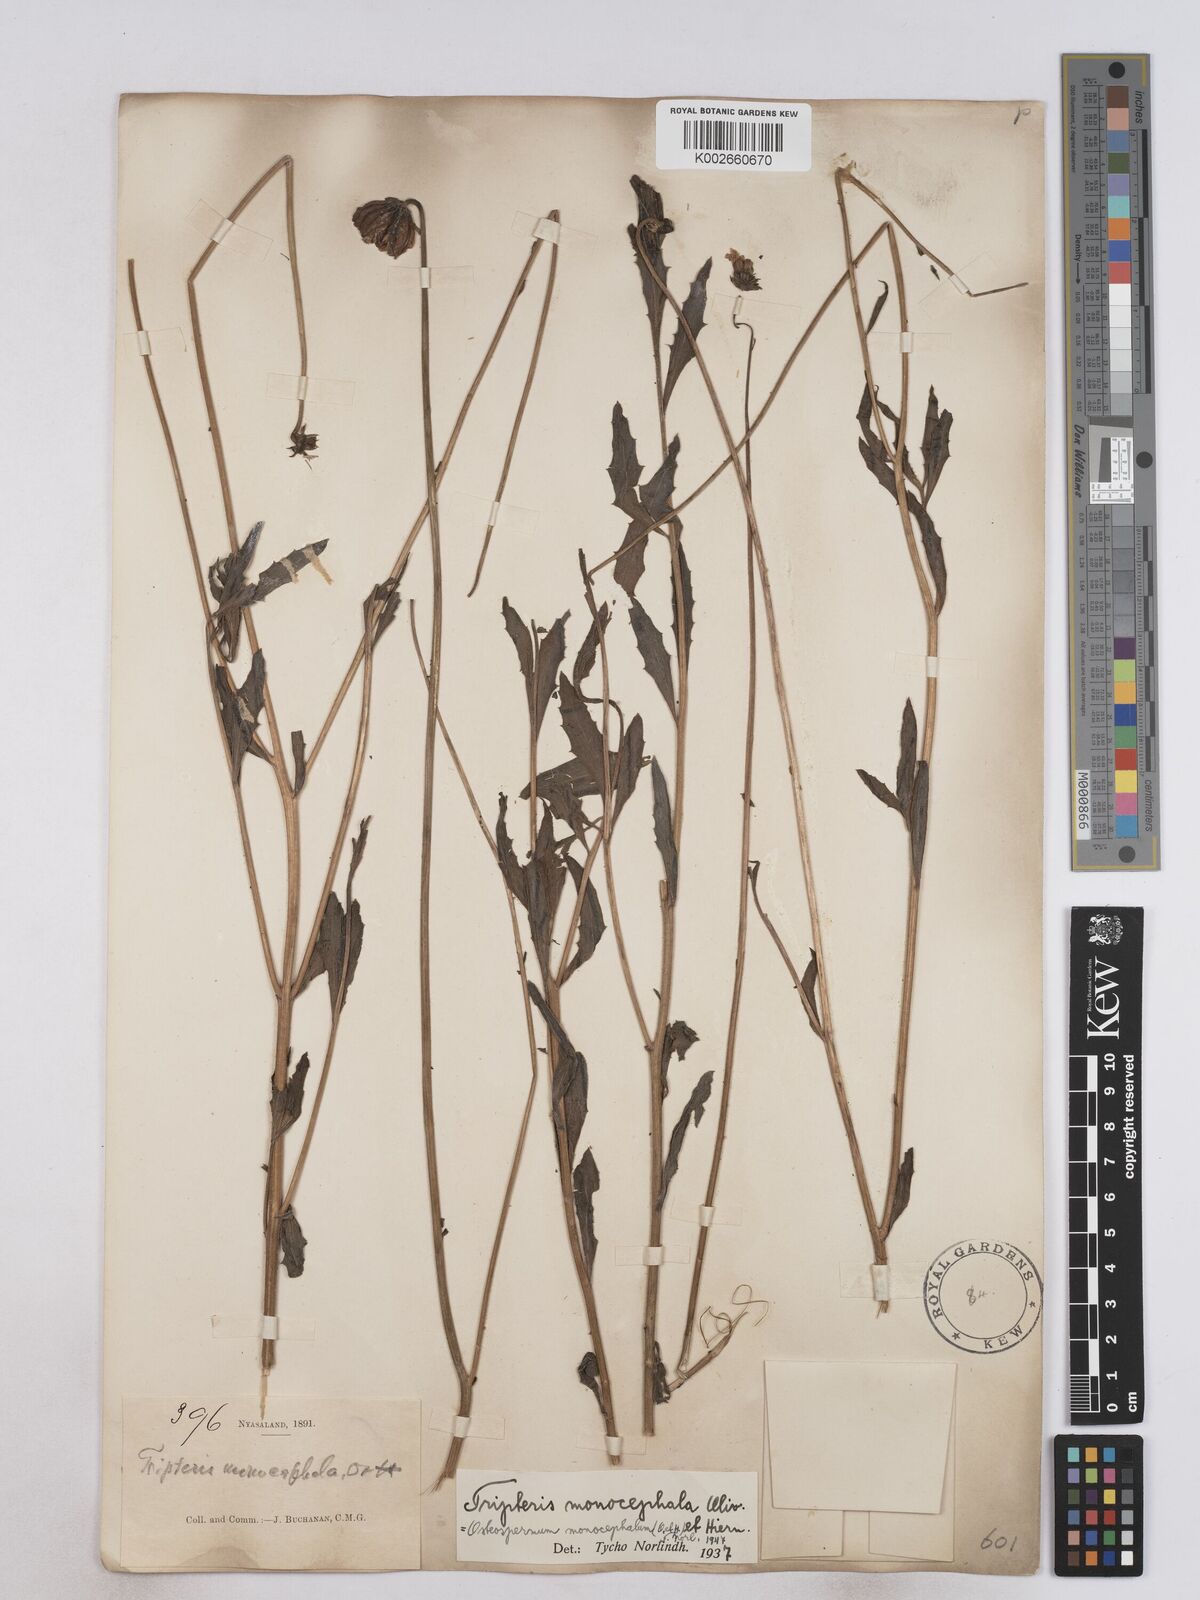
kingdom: Plantae
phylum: Tracheophyta
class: Magnoliopsida
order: Asterales
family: Asteraceae
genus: Osteospermum
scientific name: Osteospermum monocephalum
